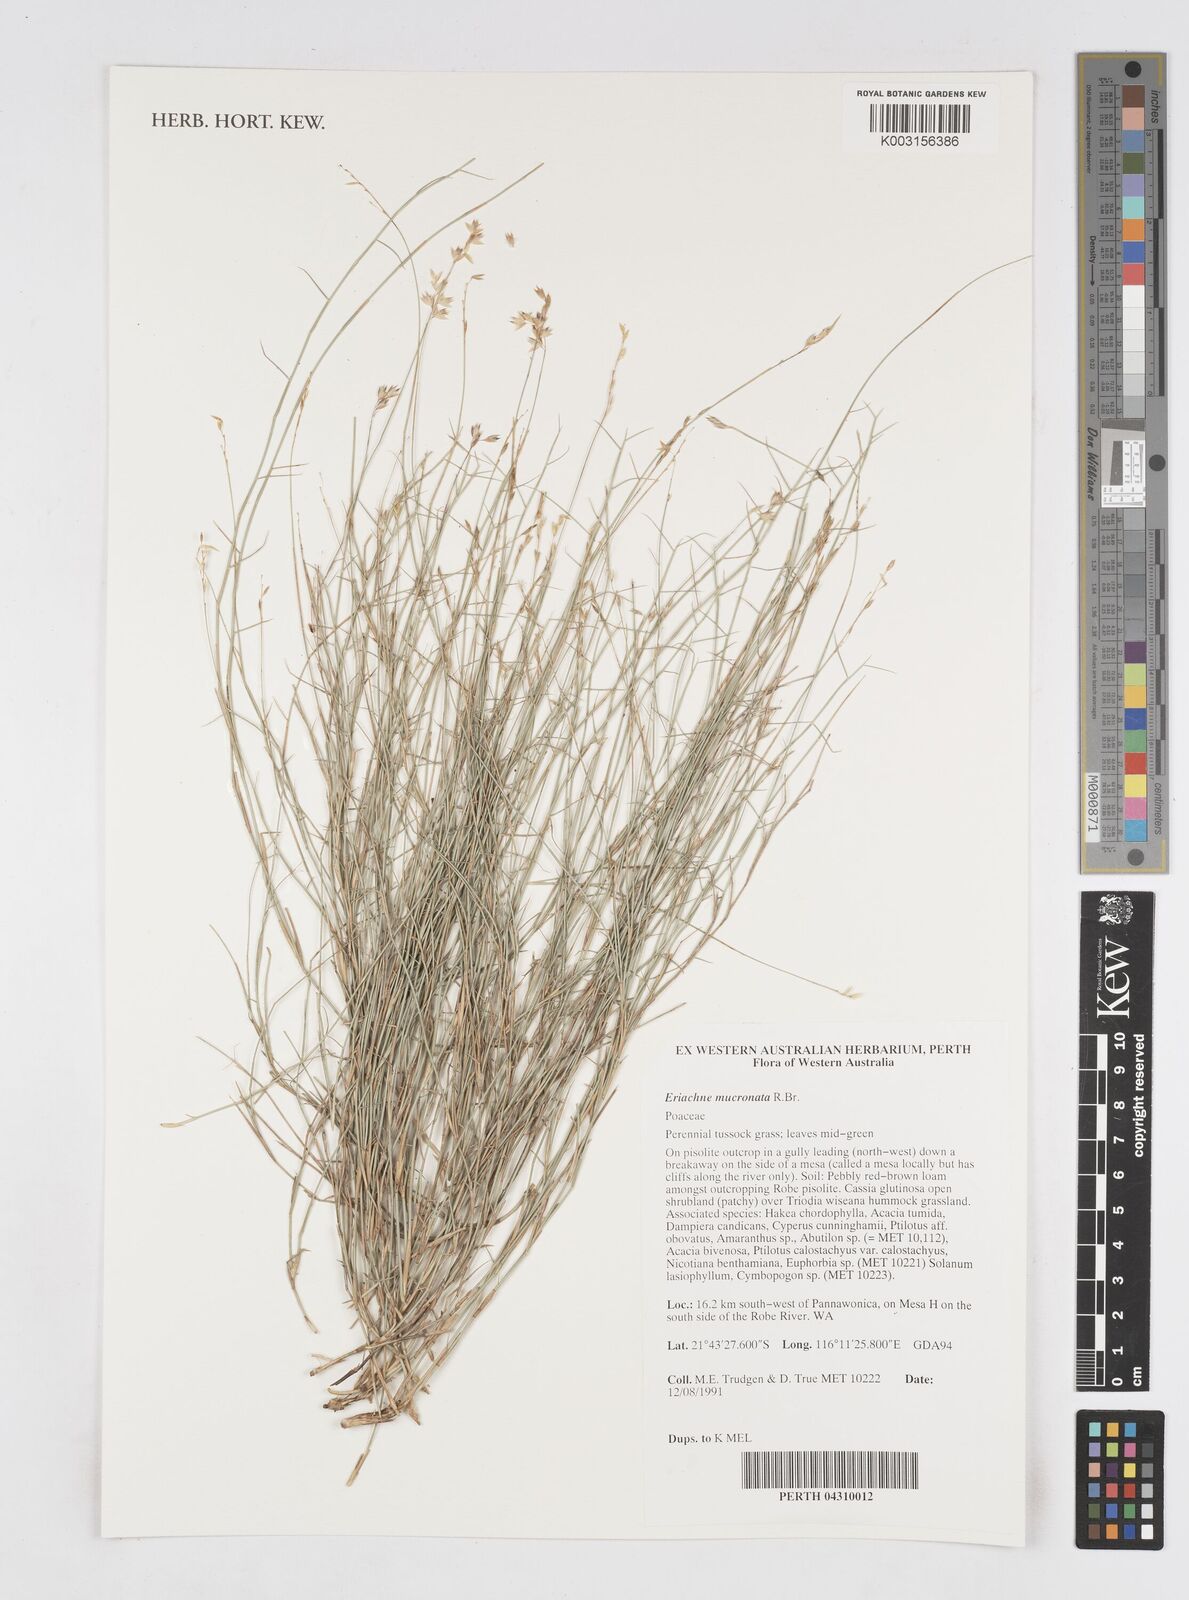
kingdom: Plantae
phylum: Tracheophyta
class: Liliopsida
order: Poales
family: Poaceae
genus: Eriachne
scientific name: Eriachne mucronata
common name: Mountain wanderrie grass
